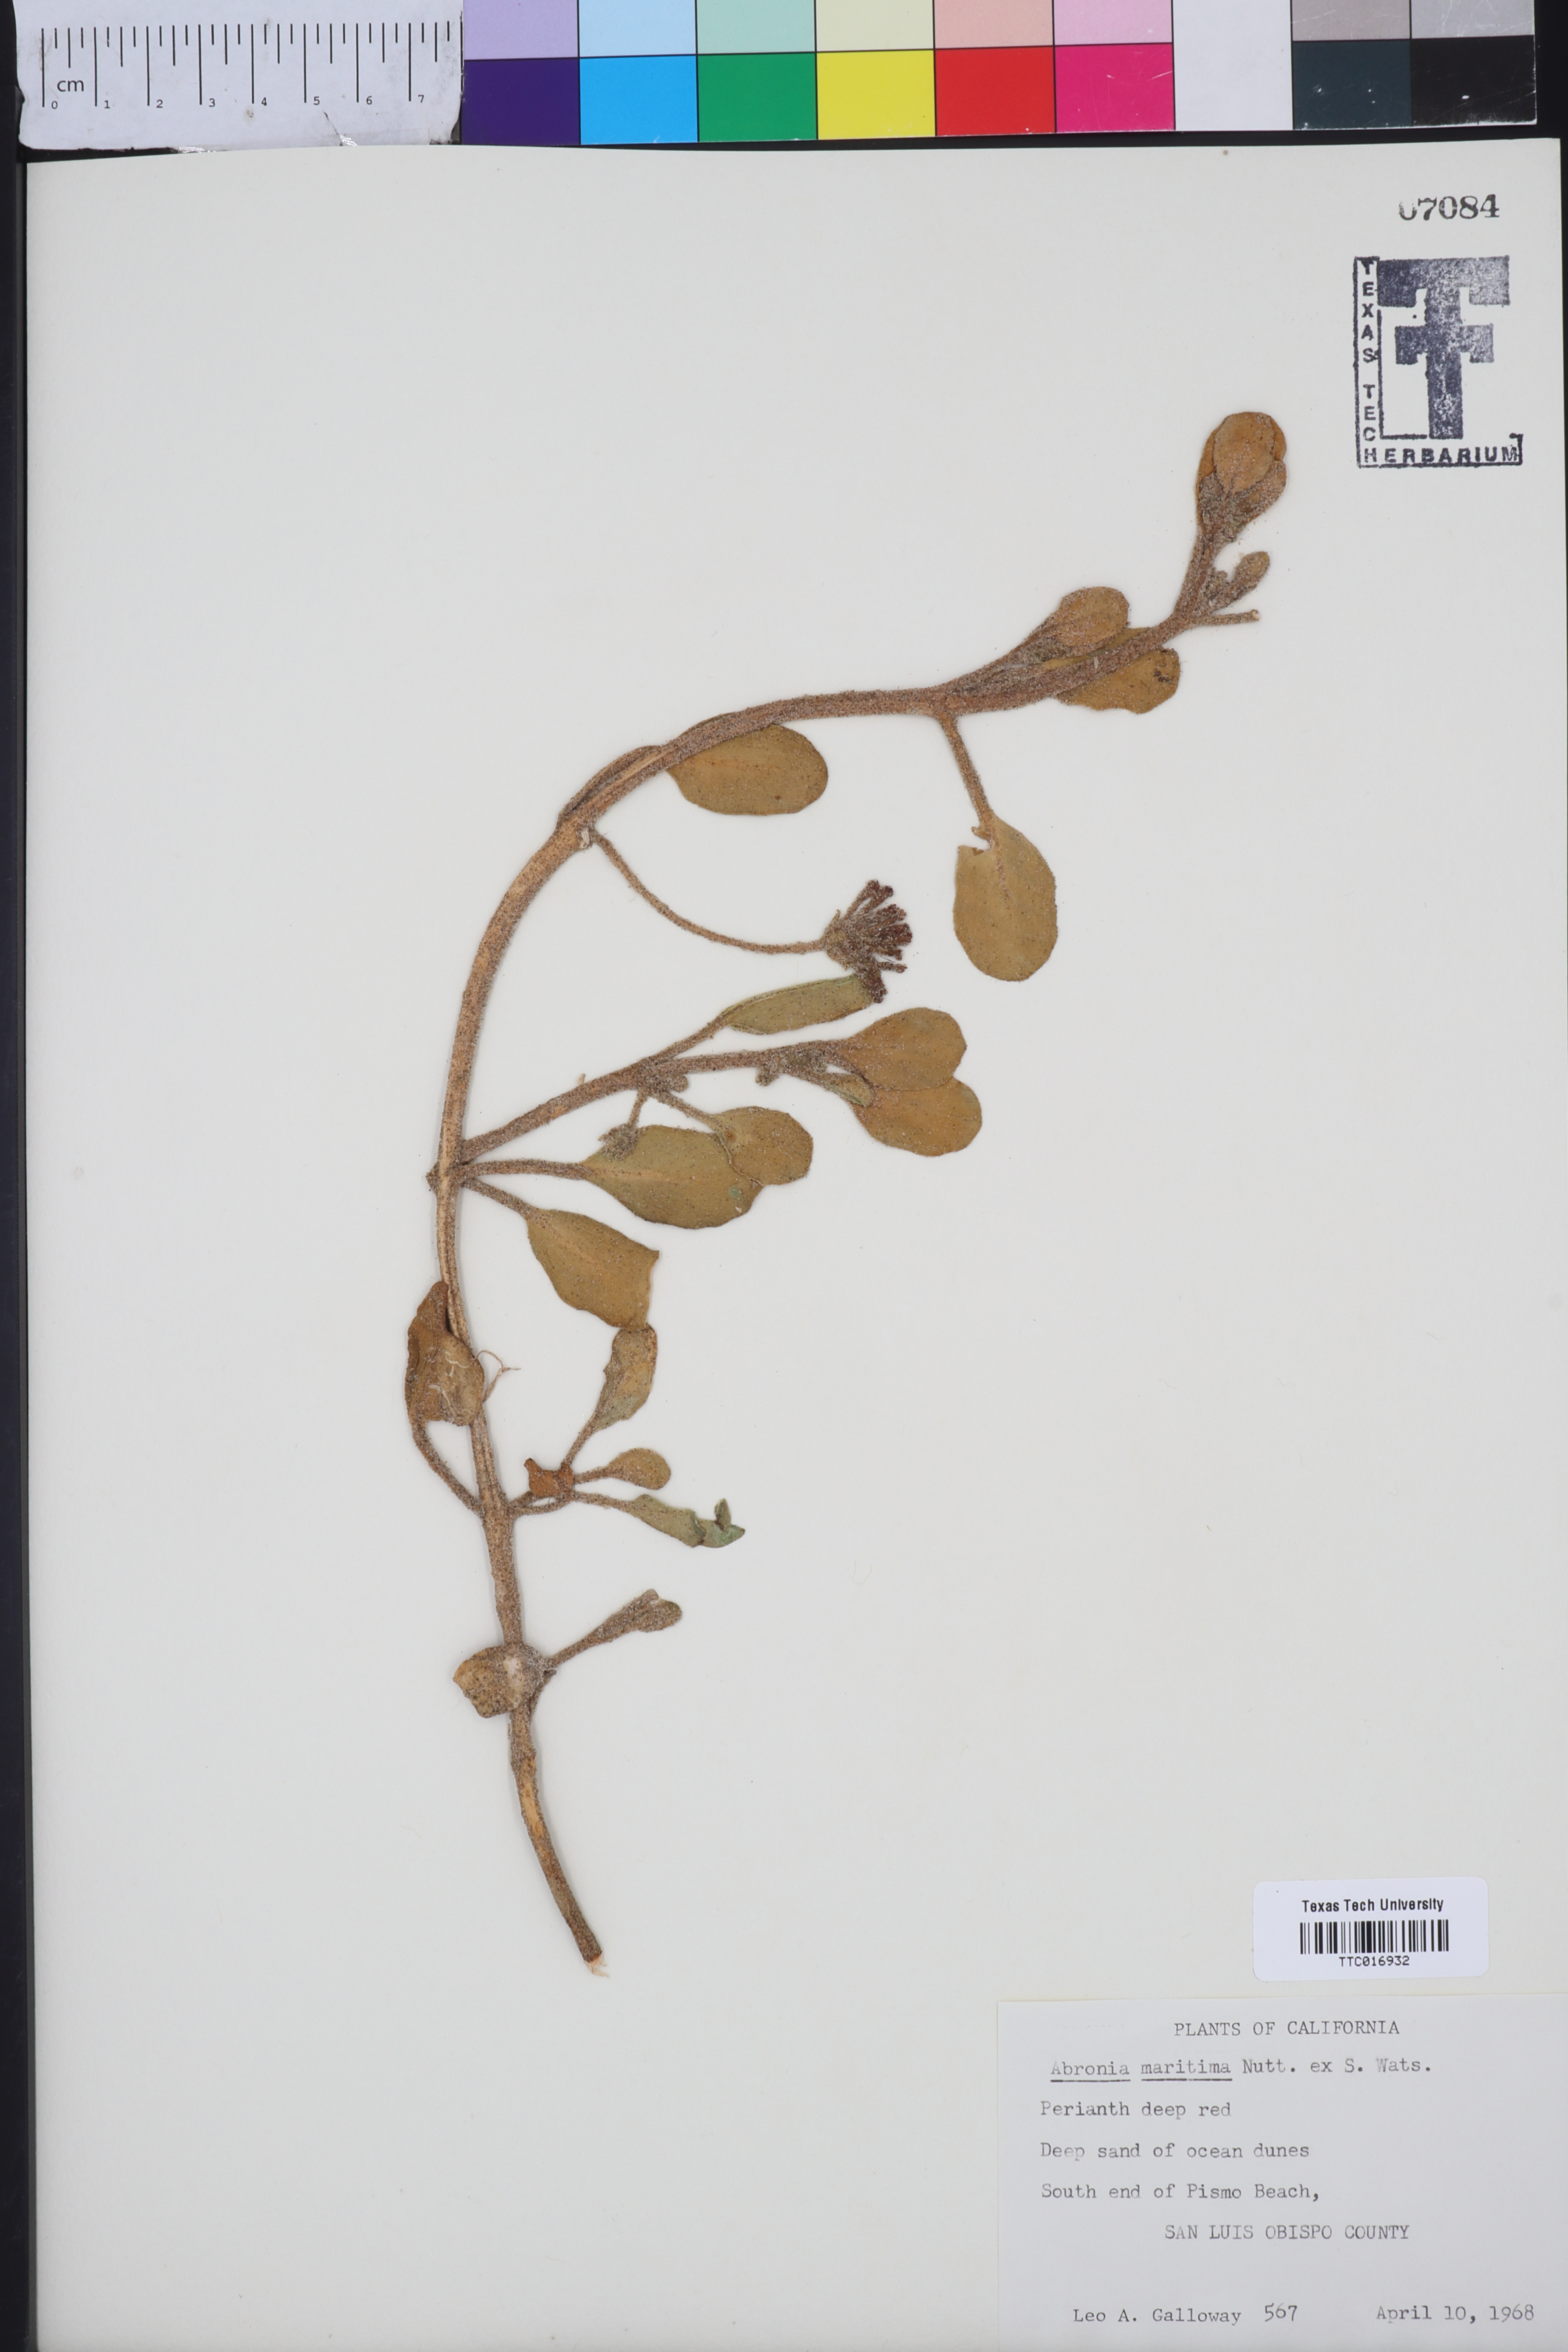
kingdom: Plantae
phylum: Tracheophyta
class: Magnoliopsida
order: Caryophyllales
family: Nyctaginaceae
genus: Abronia
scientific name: Abronia maritima
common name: Red sand-verbena
